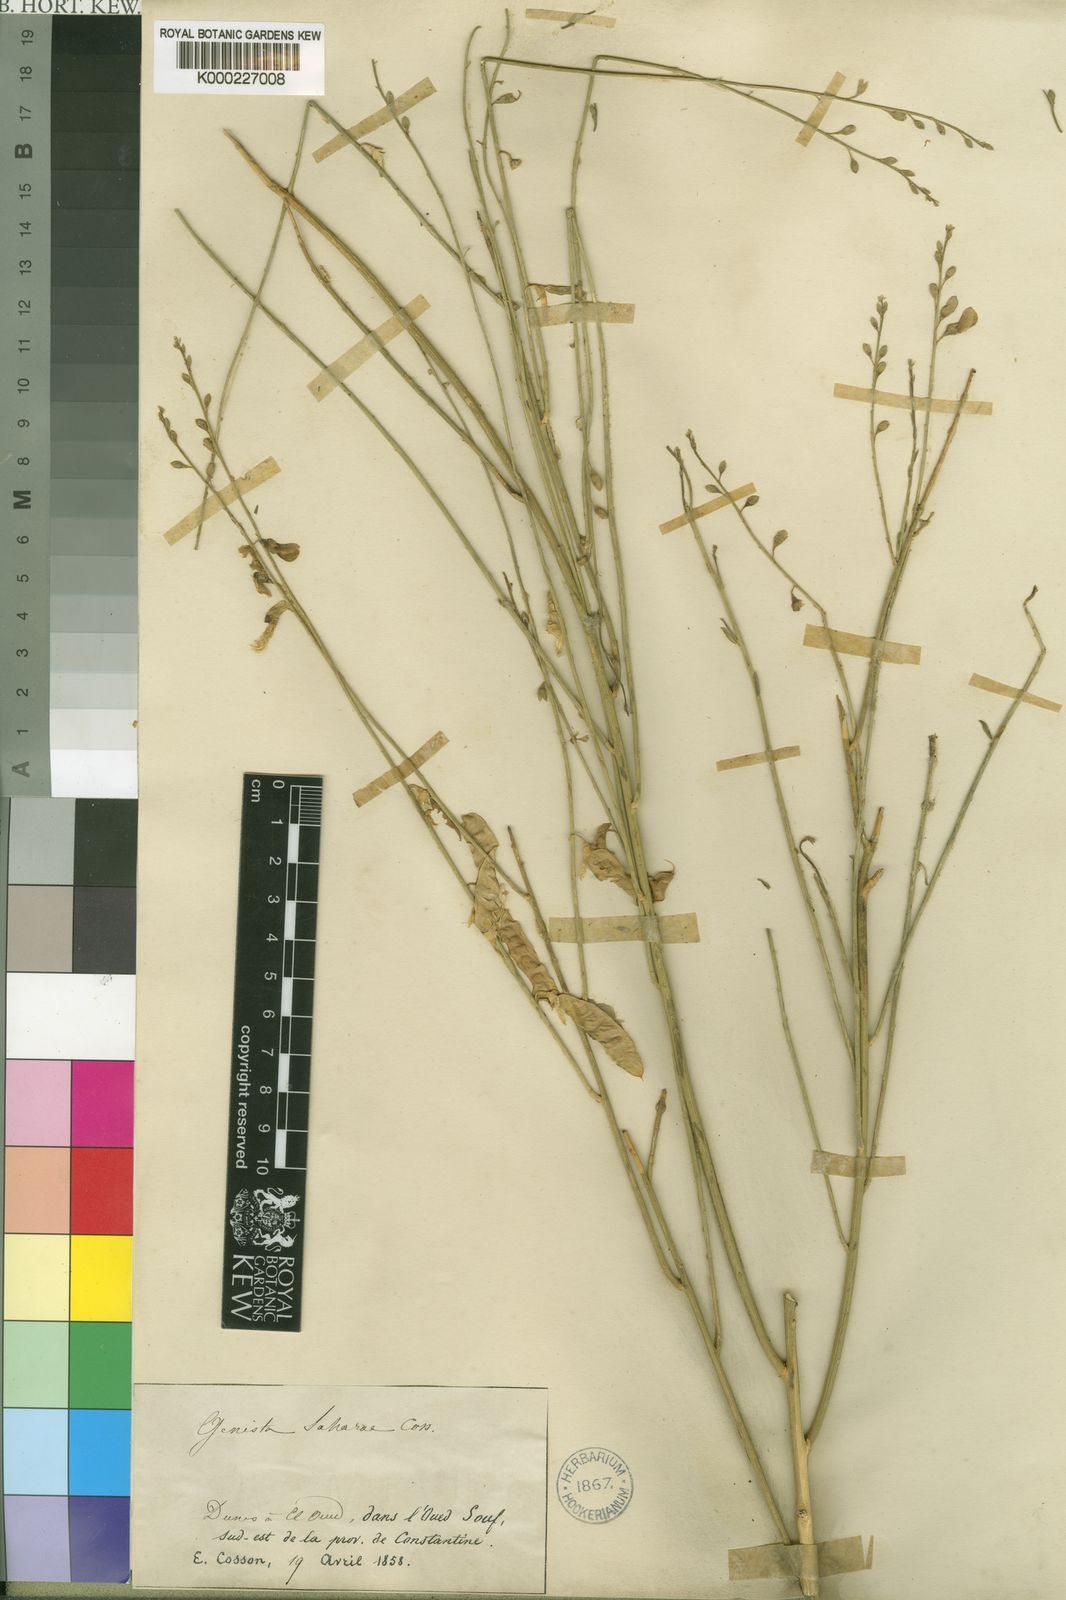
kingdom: Plantae
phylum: Tracheophyta
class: Magnoliopsida
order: Fabales
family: Fabaceae
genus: Calobota
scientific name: Calobota saharae
